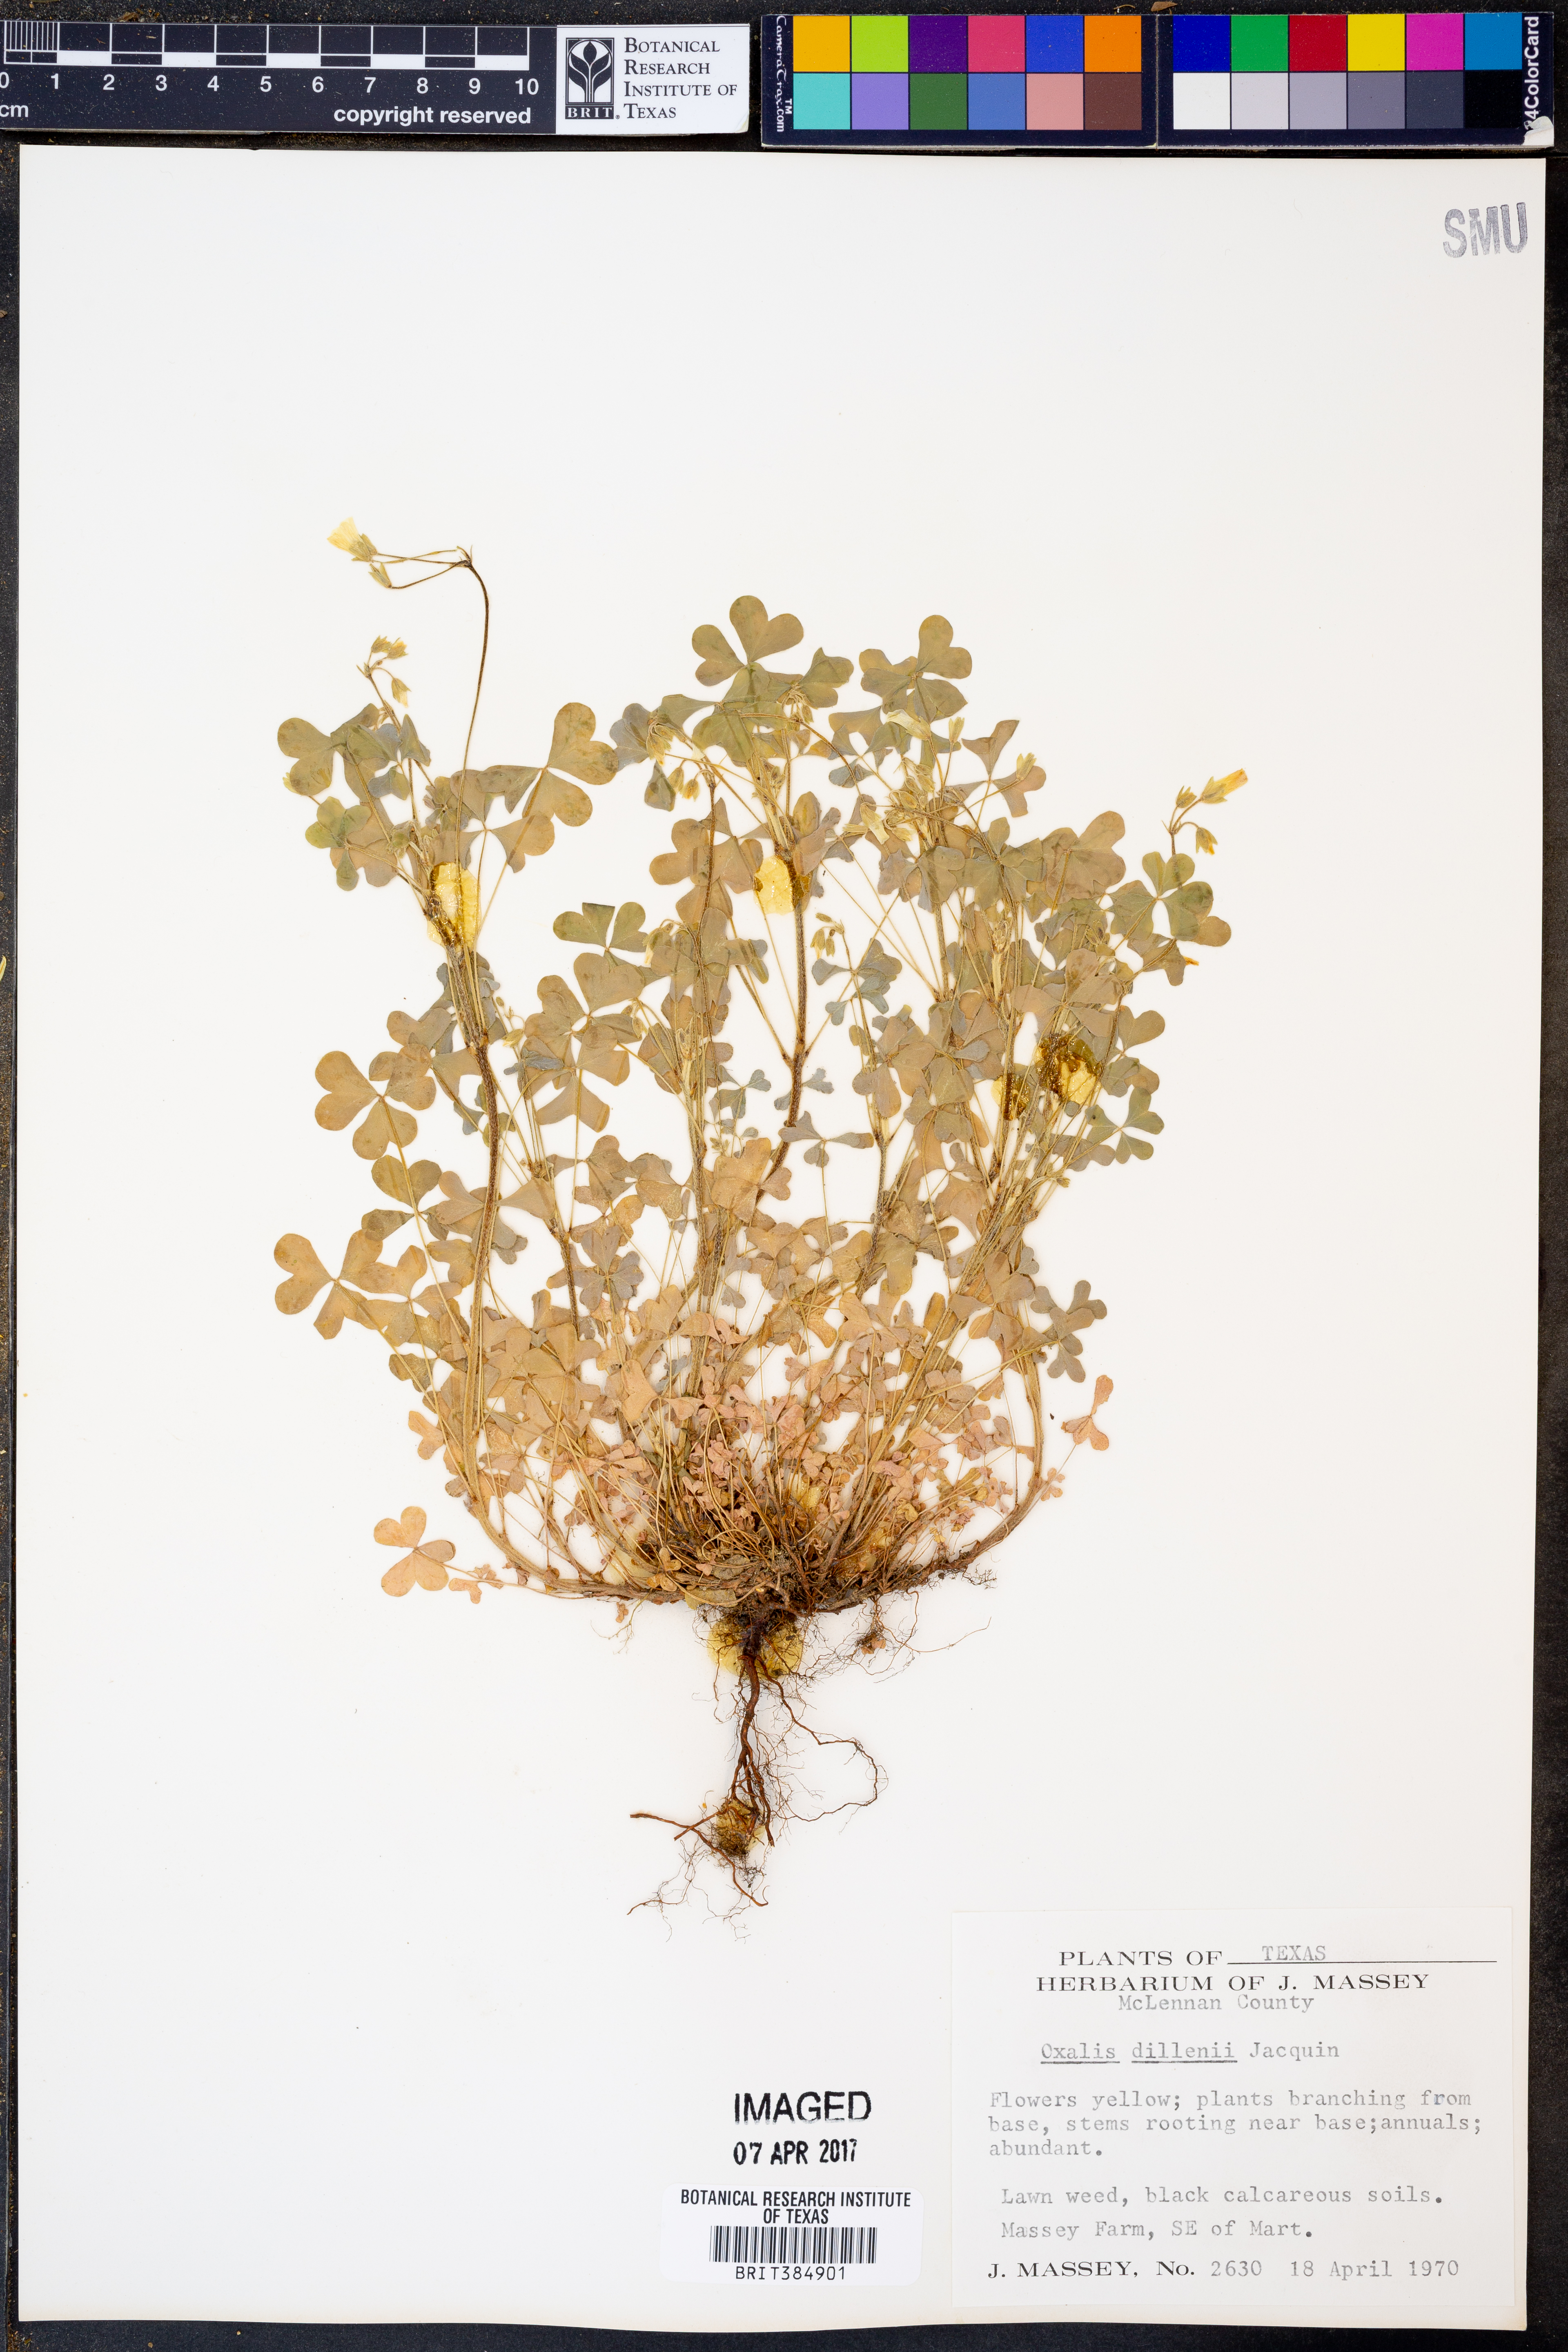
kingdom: Plantae
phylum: Tracheophyta
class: Magnoliopsida
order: Oxalidales
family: Oxalidaceae
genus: Oxalis
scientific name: Oxalis dillenii
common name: Sussex yellow-sorrel
